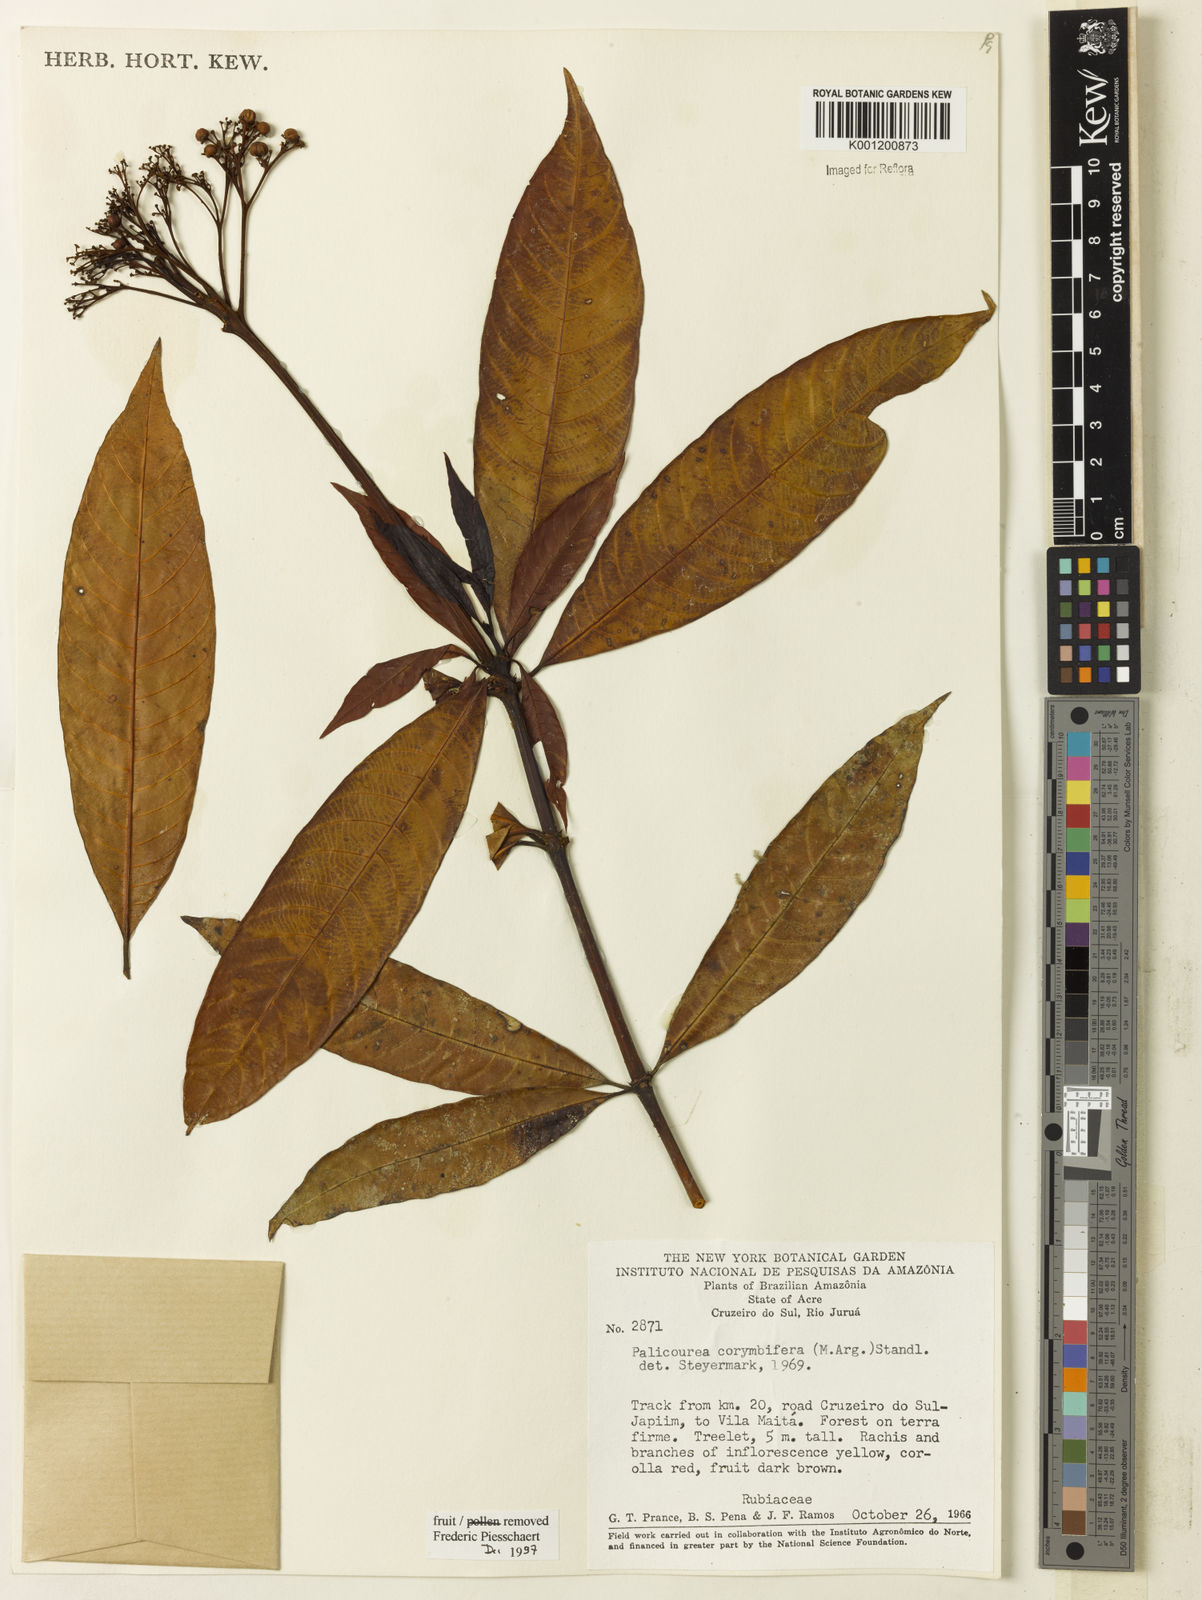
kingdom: Plantae
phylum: Tracheophyta
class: Magnoliopsida
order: Gentianales
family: Rubiaceae
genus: Palicourea
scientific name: Palicourea
